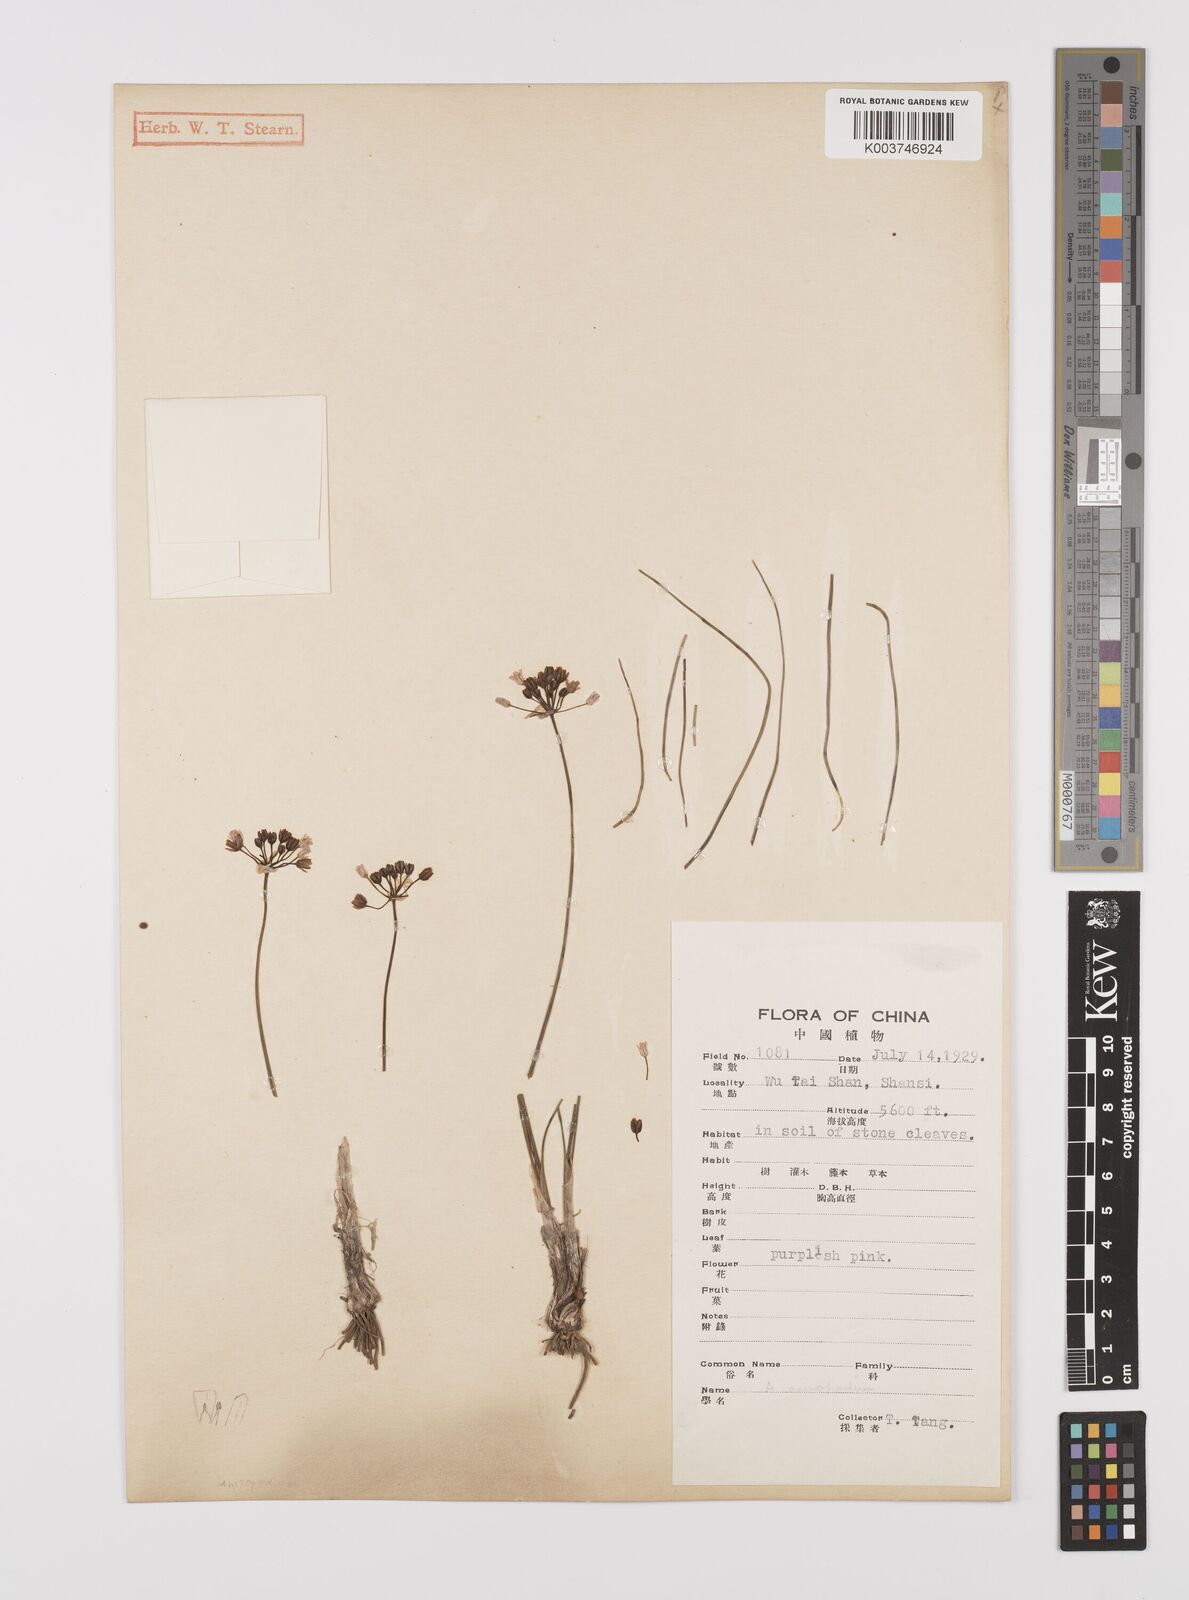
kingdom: Plantae
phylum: Tracheophyta
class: Liliopsida
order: Asparagales
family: Amaryllidaceae
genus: Allium
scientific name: Allium
